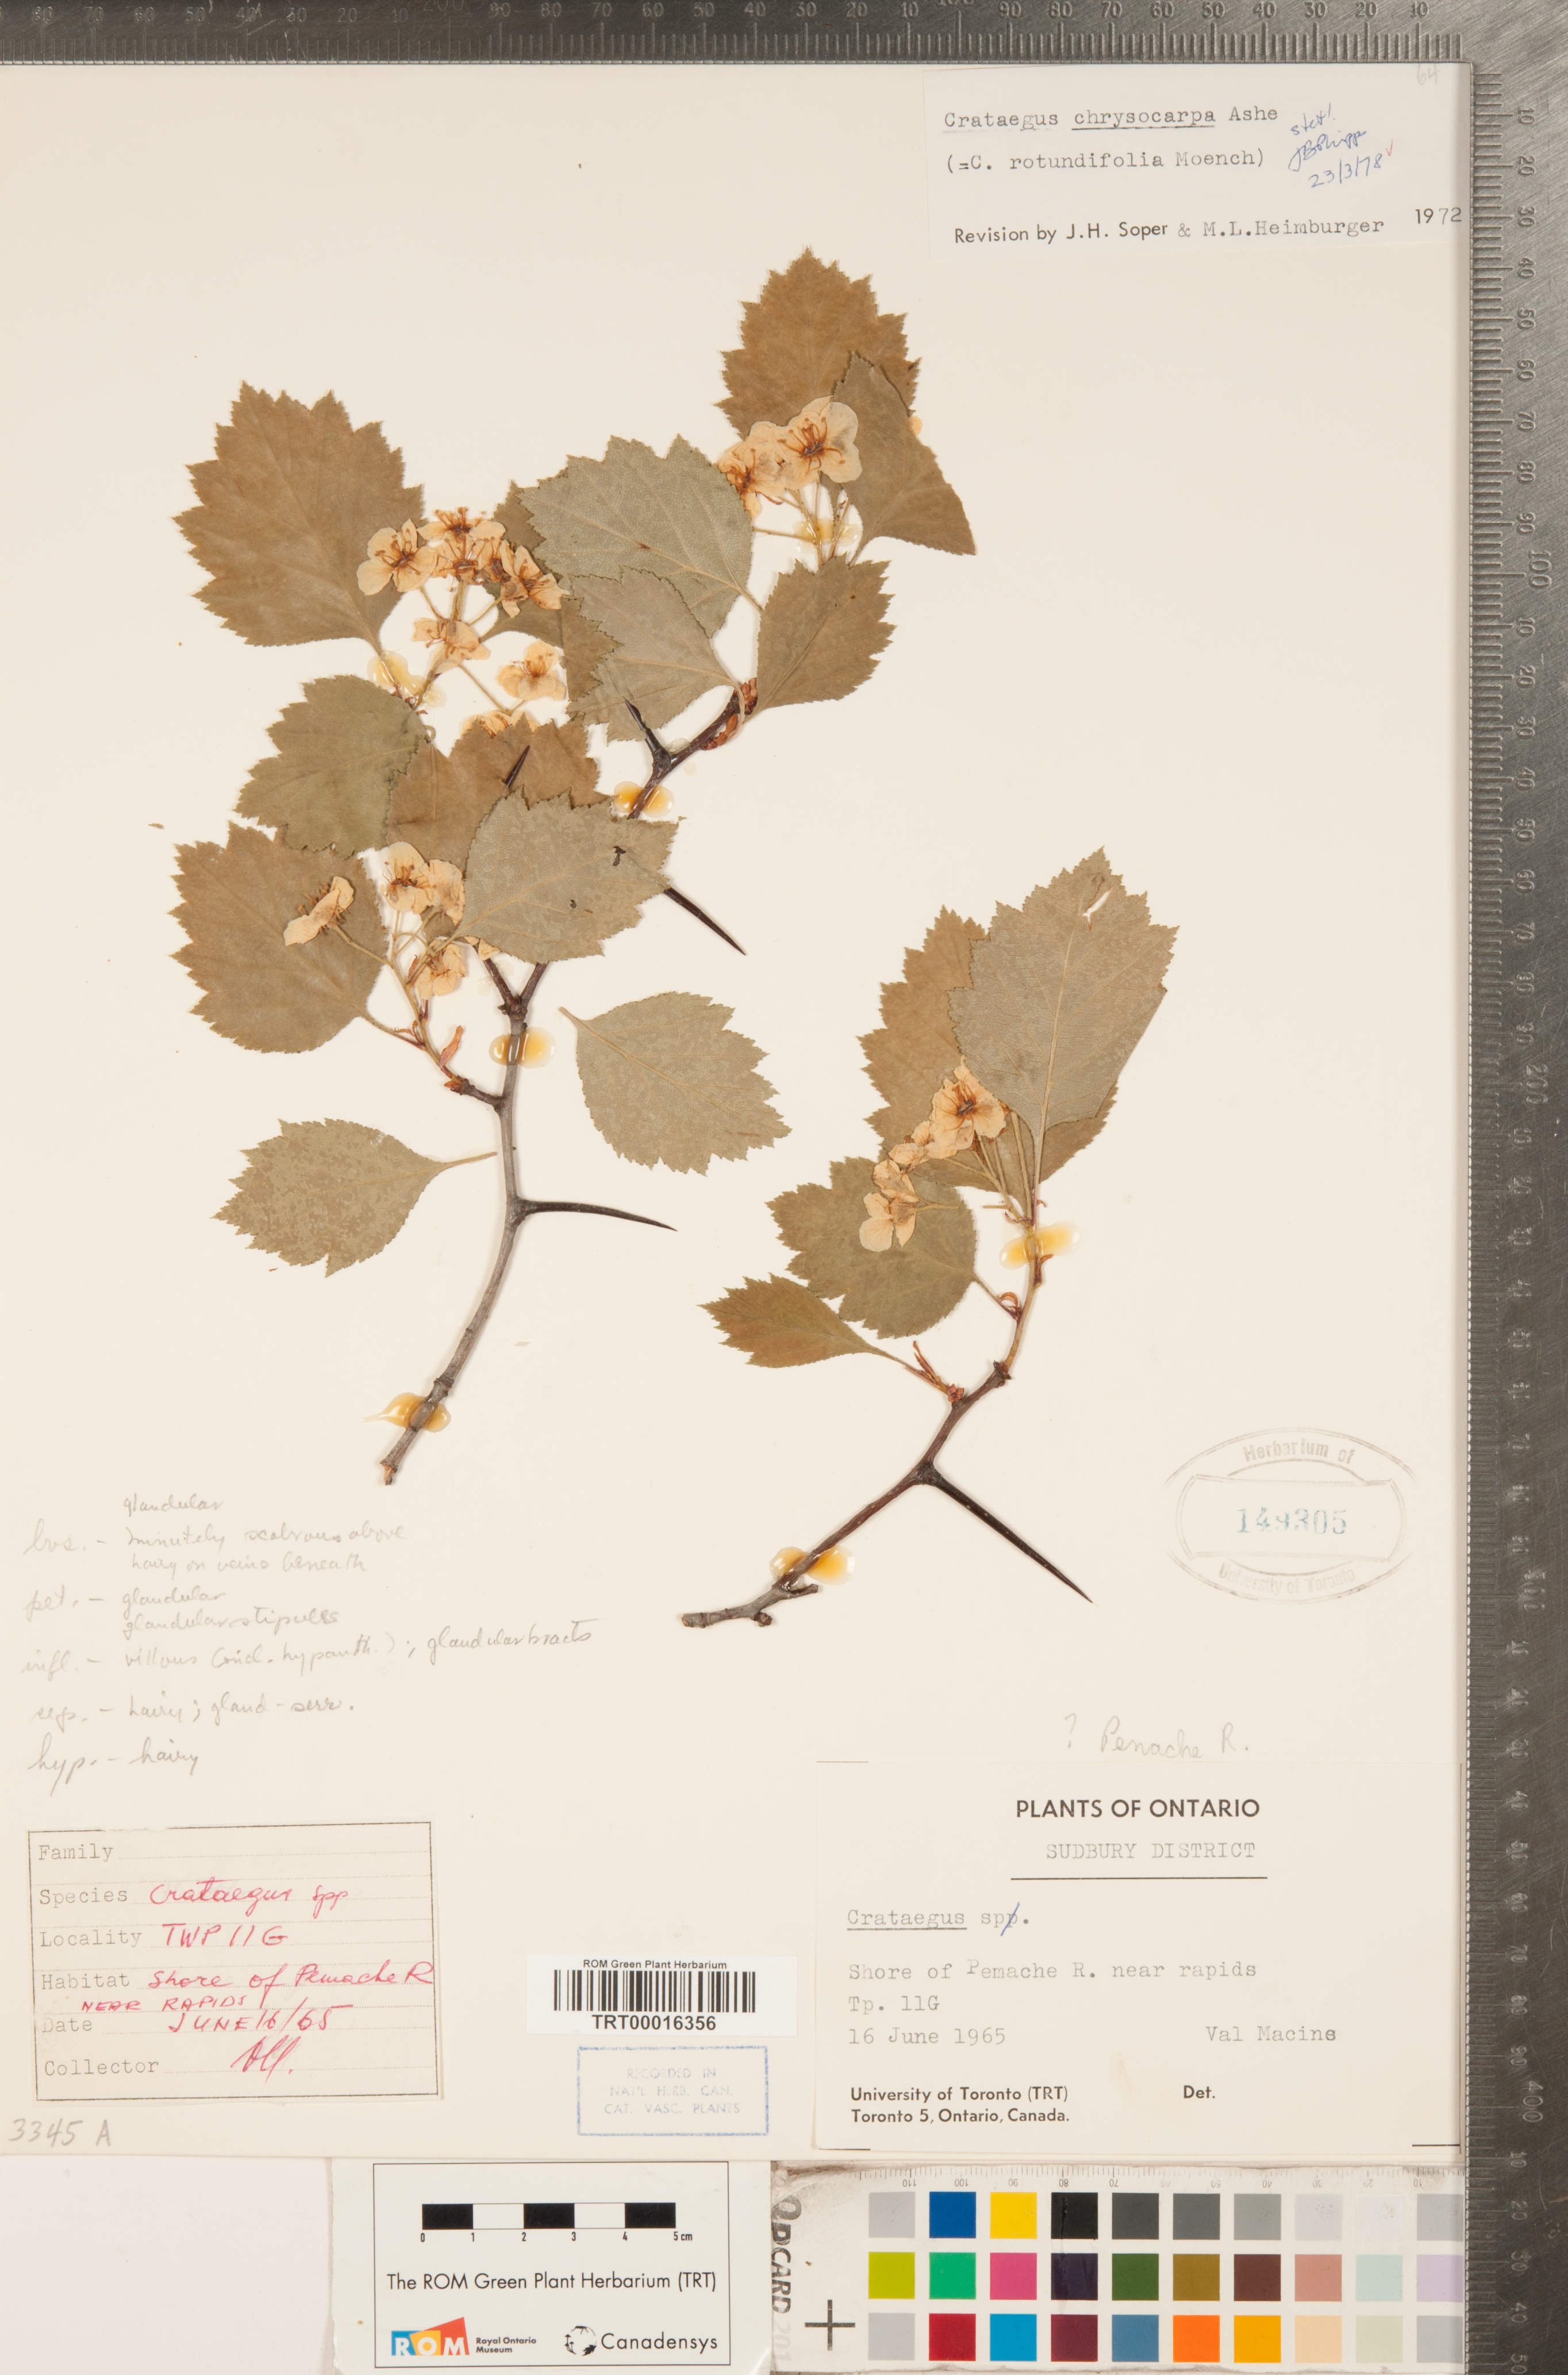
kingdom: Plantae
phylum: Tracheophyta
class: Magnoliopsida
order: Rosales
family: Rosaceae
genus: Crataegus
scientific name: Crataegus chrysocarpa
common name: Fire-berry hawthorn
